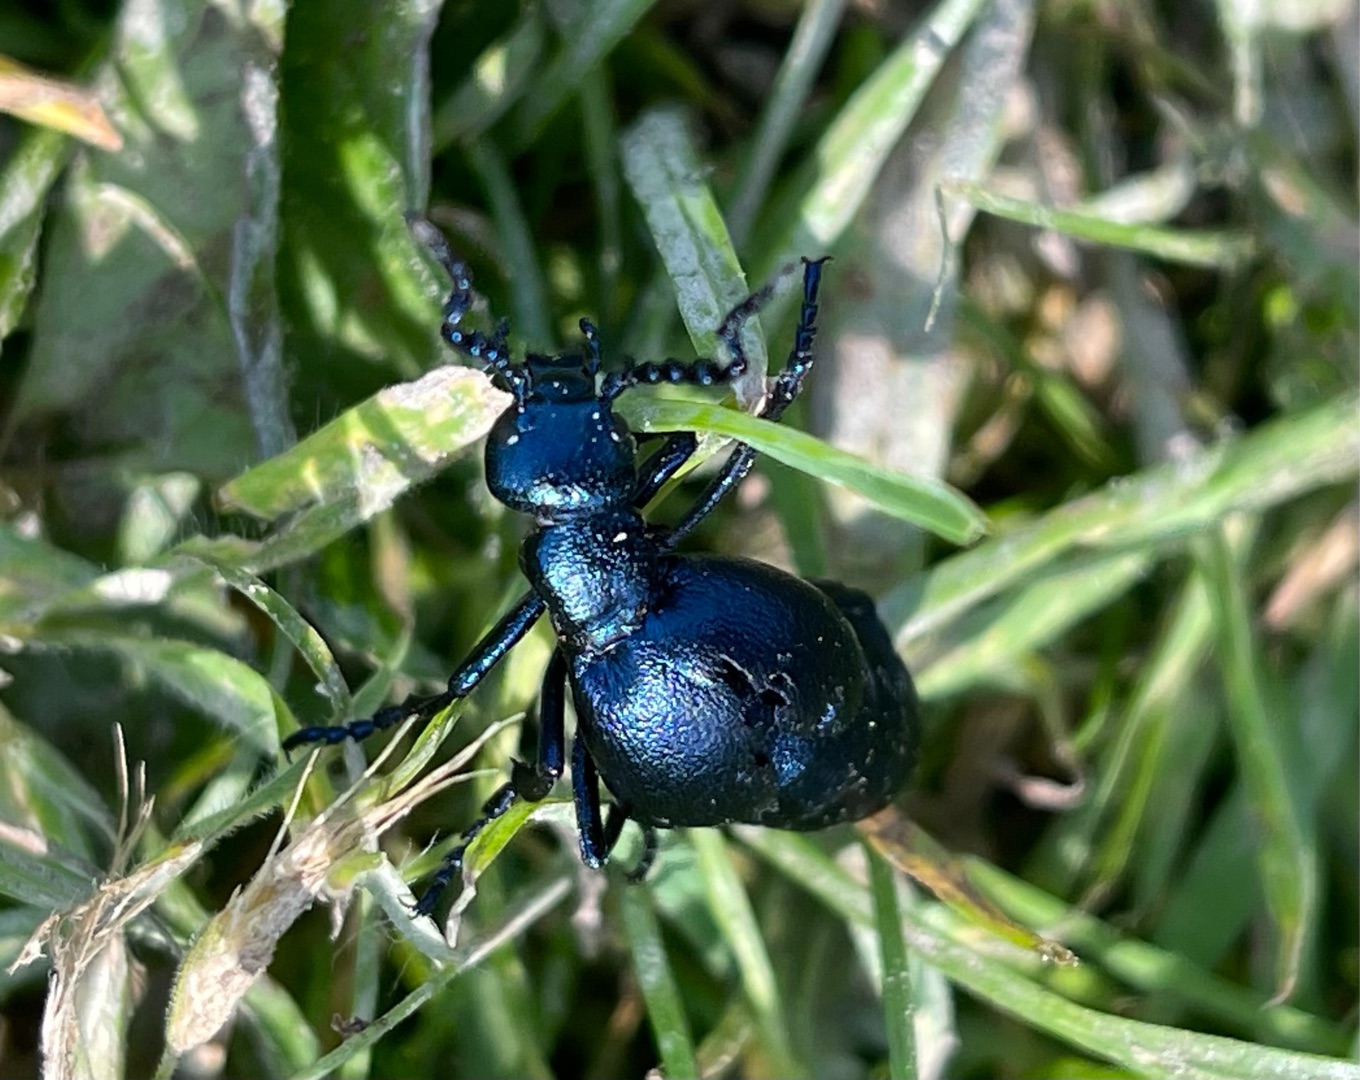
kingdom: Animalia
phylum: Arthropoda
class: Insecta
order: Coleoptera
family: Meloidae
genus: Meloe
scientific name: Meloe violaceus
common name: Blå oliebille
